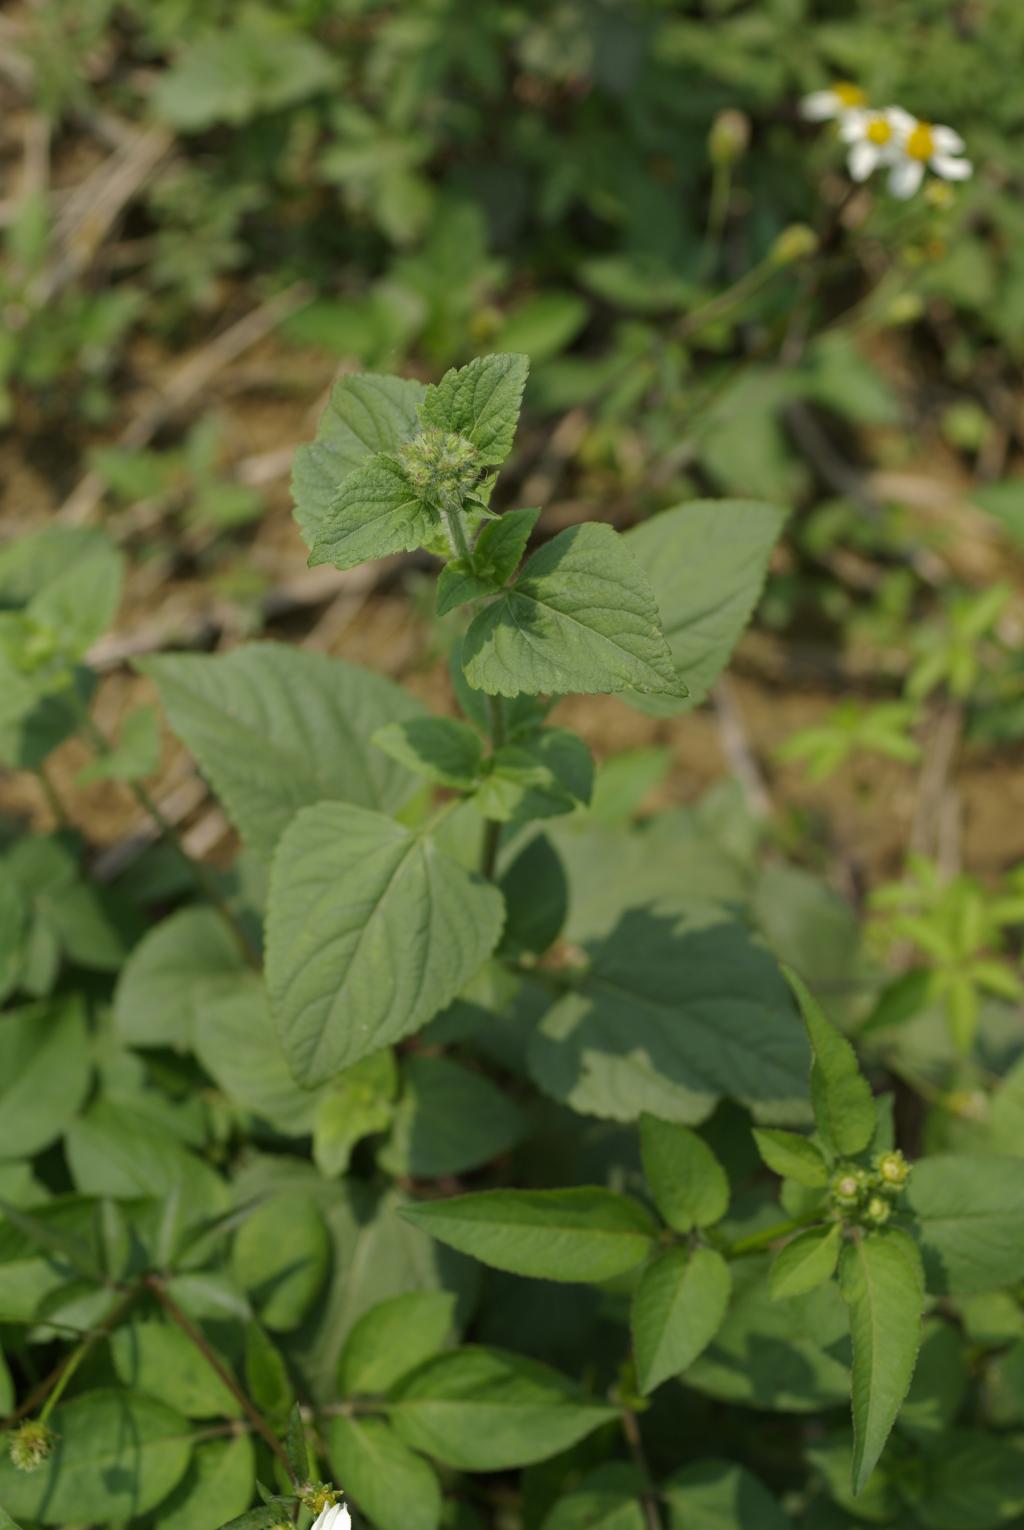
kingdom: Plantae
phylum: Tracheophyta
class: Magnoliopsida
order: Asterales
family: Asteraceae
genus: Praxelis
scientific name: Praxelis clematidea
